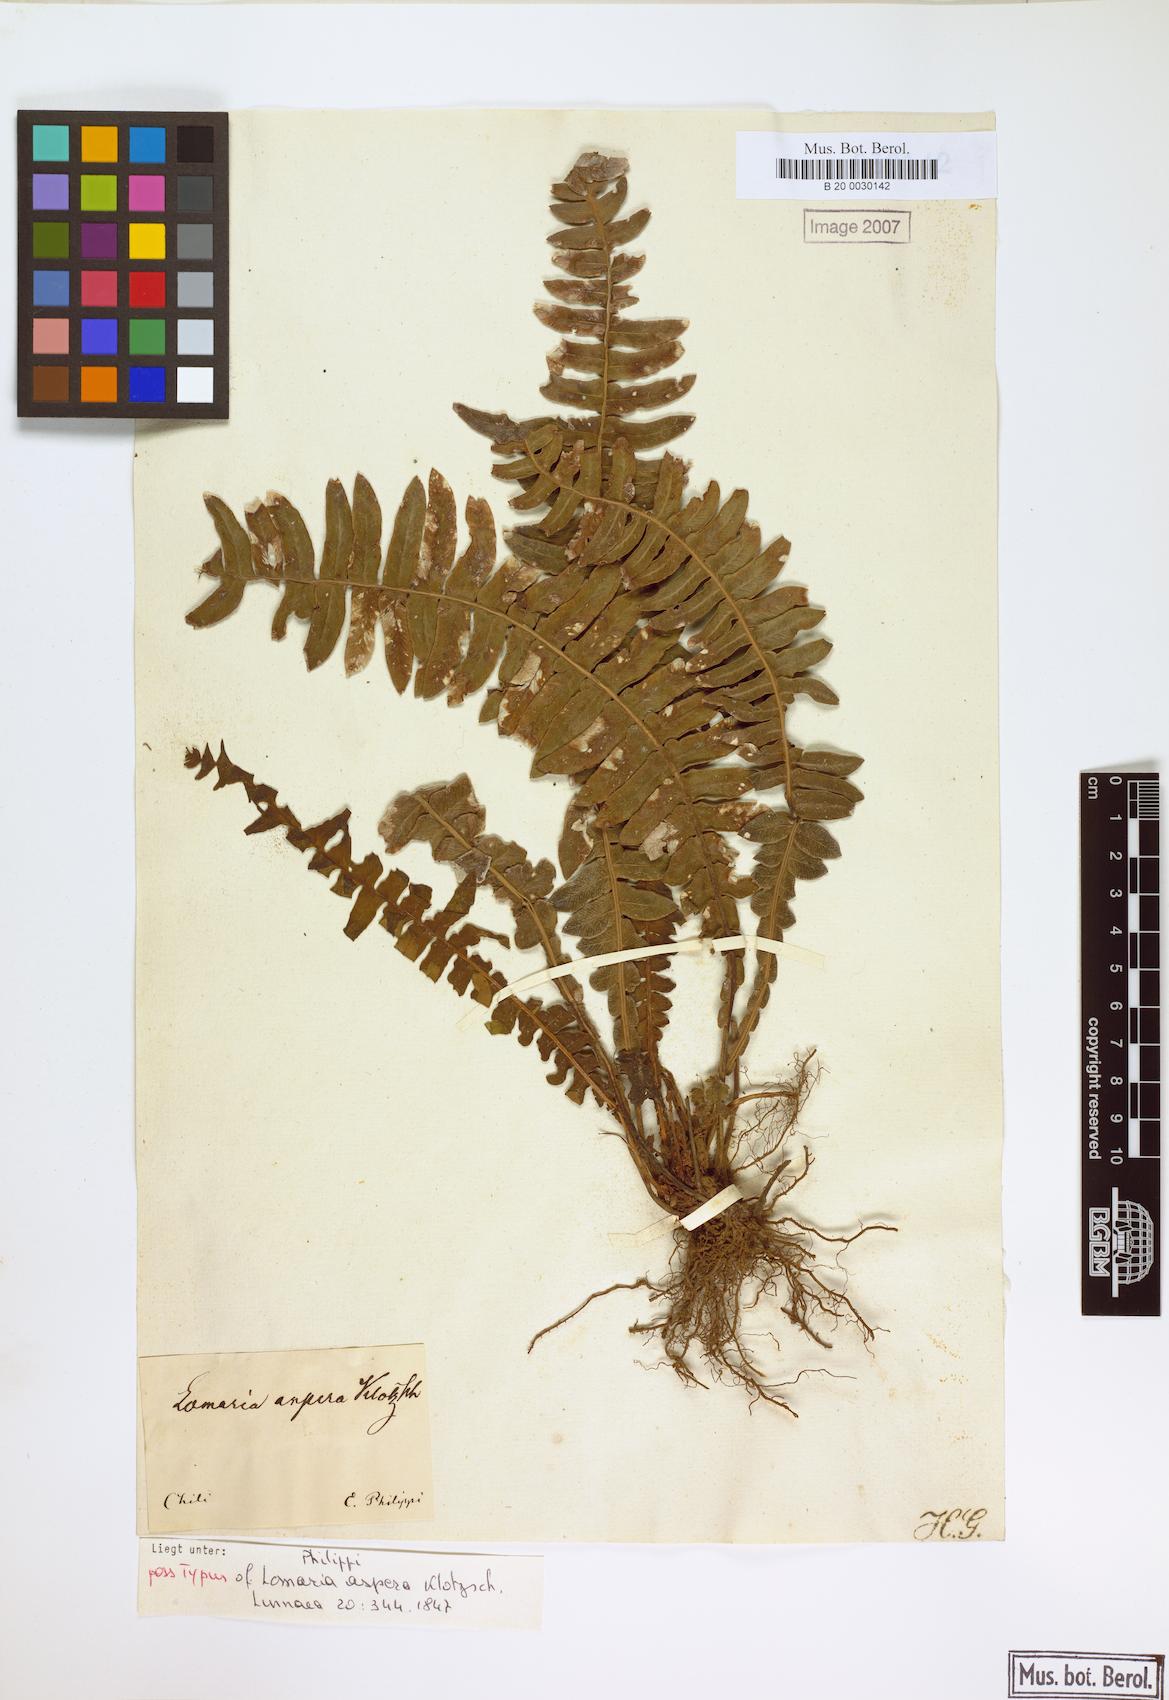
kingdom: Plantae
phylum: Tracheophyta
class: Polypodiopsida
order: Polypodiales
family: Blechnaceae
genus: Austroblechnum
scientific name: Austroblechnum asperum
